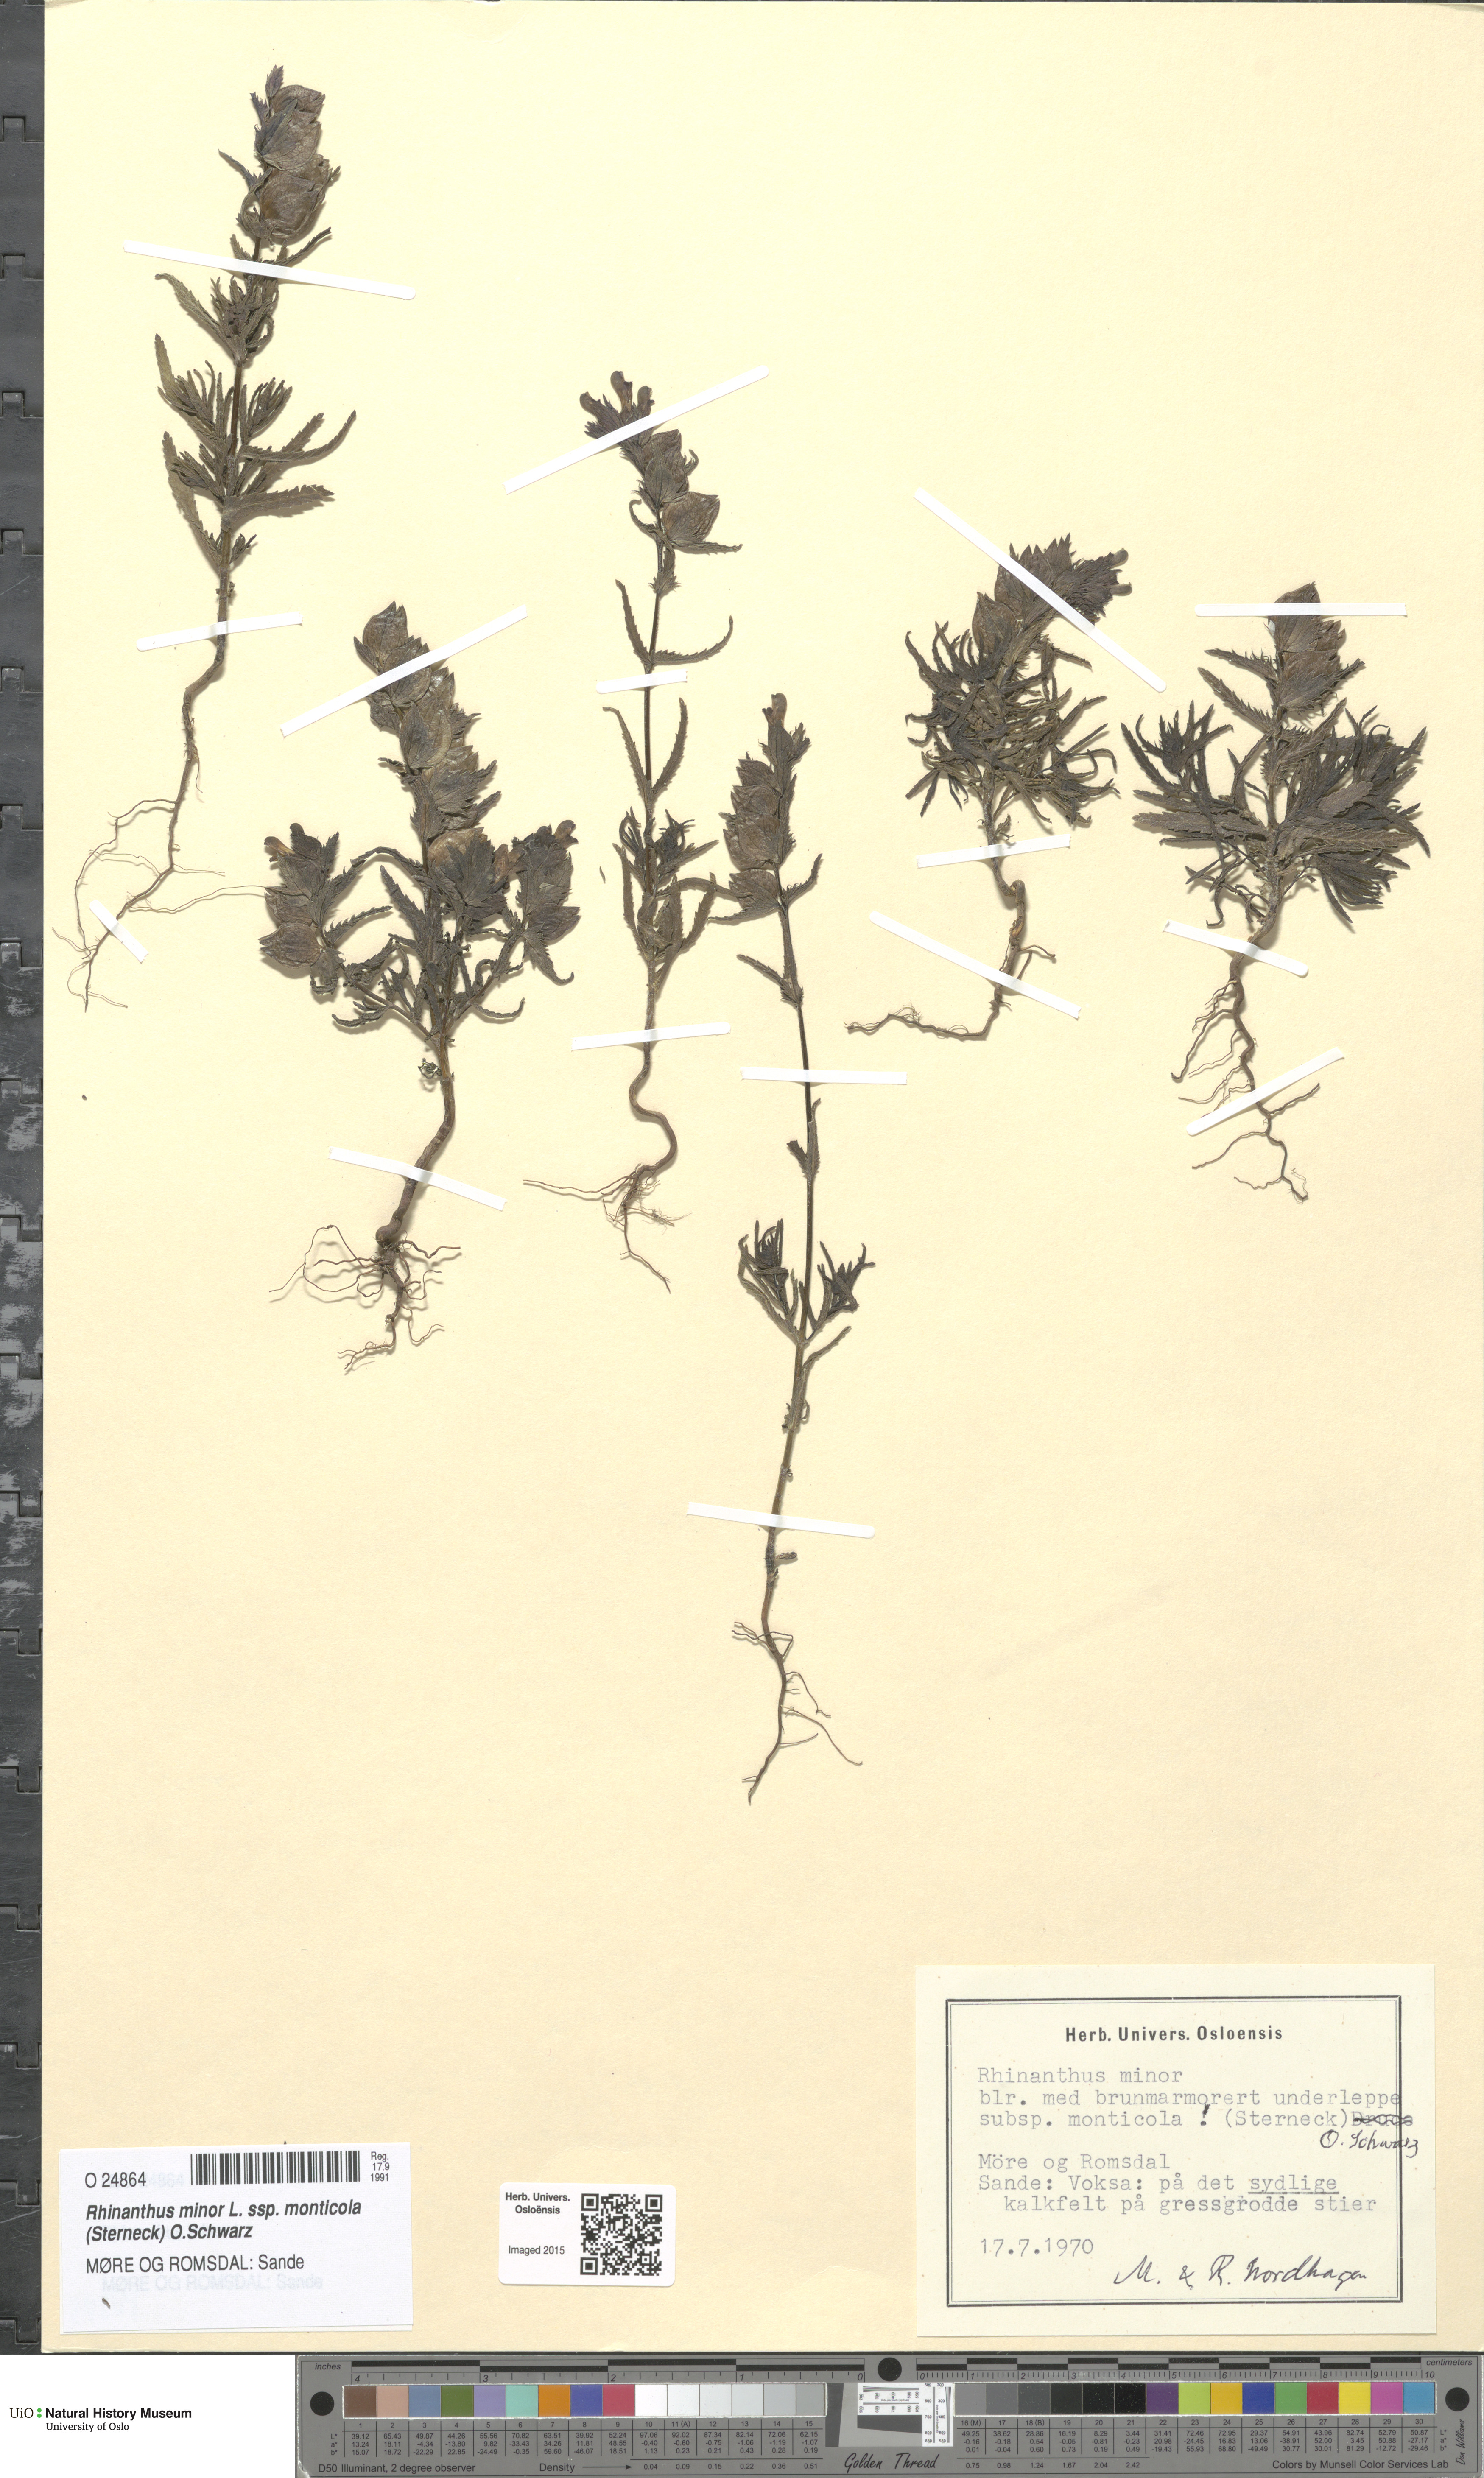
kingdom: Plantae
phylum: Tracheophyta
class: Magnoliopsida
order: Lamiales
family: Orobanchaceae
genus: Rhinanthus
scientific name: Rhinanthus minor
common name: Yellow-rattle
